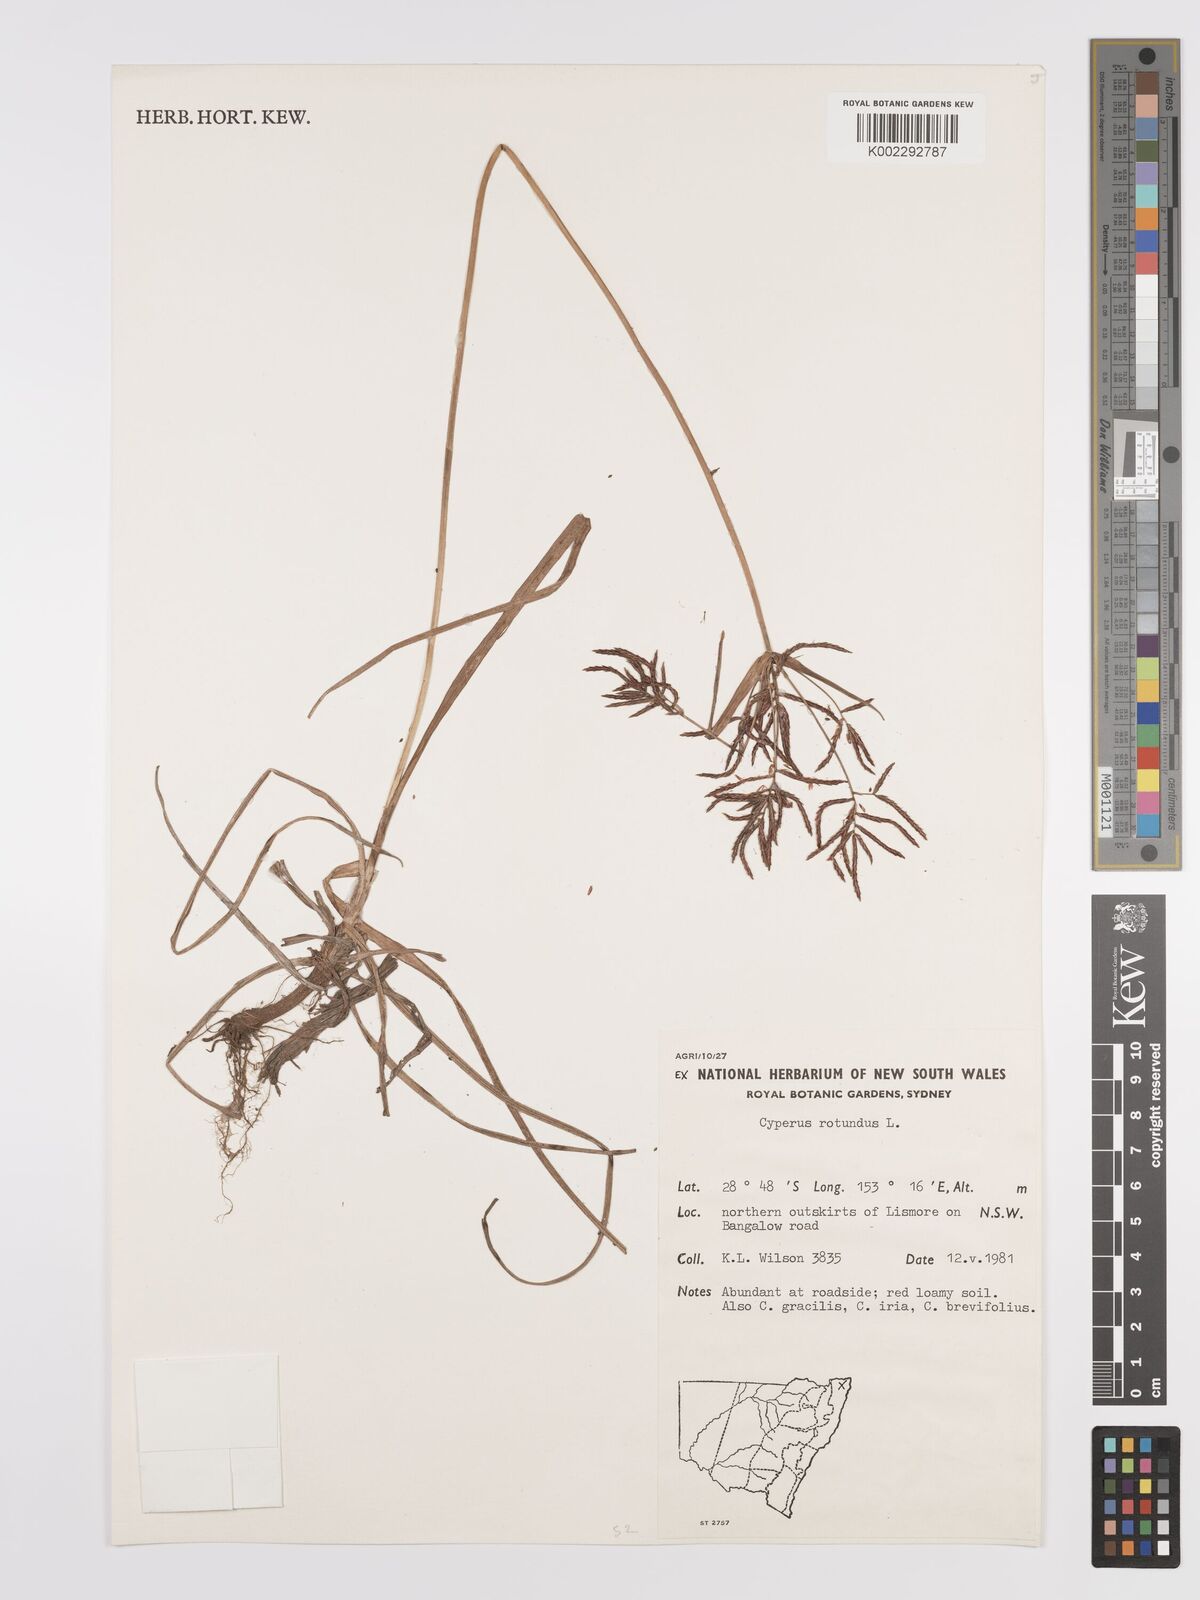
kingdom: Plantae
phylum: Tracheophyta
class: Liliopsida
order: Poales
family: Cyperaceae
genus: Cyperus
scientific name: Cyperus rotundus
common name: Nutgrass
